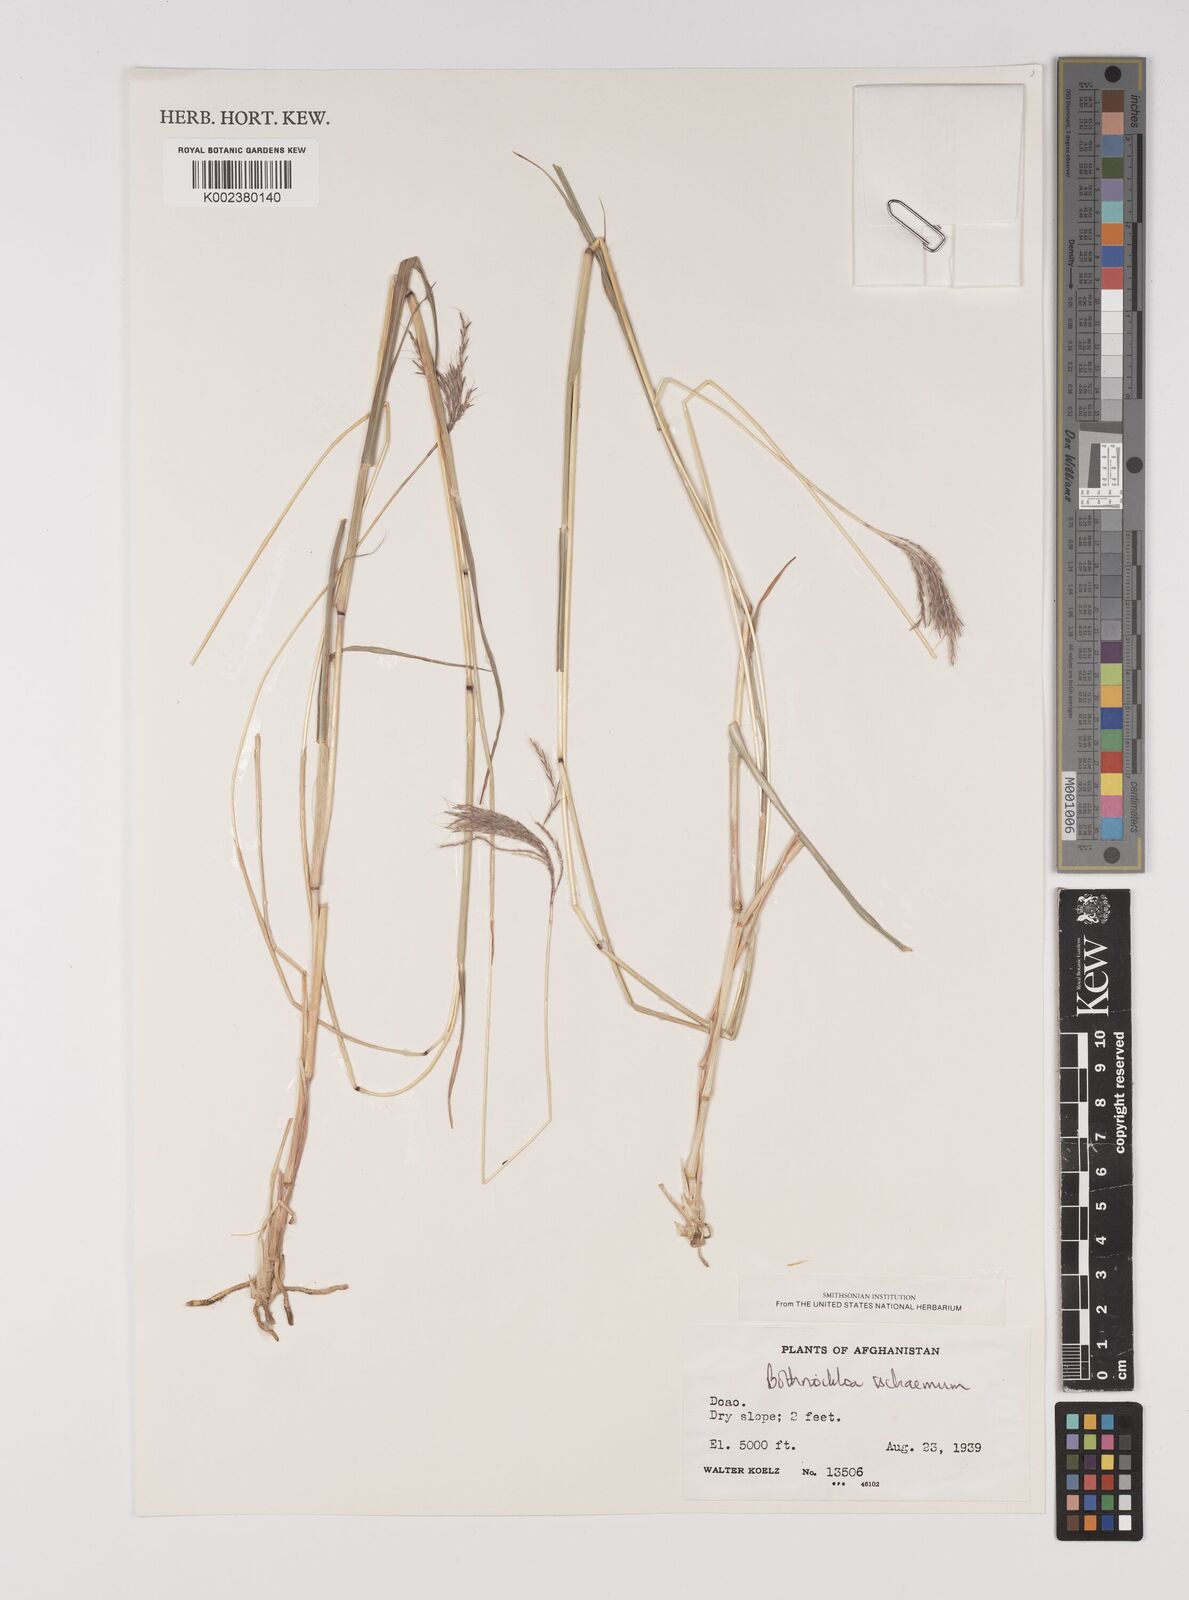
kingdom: Plantae
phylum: Tracheophyta
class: Liliopsida
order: Poales
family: Poaceae
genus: Bothriochloa
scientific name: Bothriochloa ischaemum
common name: Yellow bluestem
